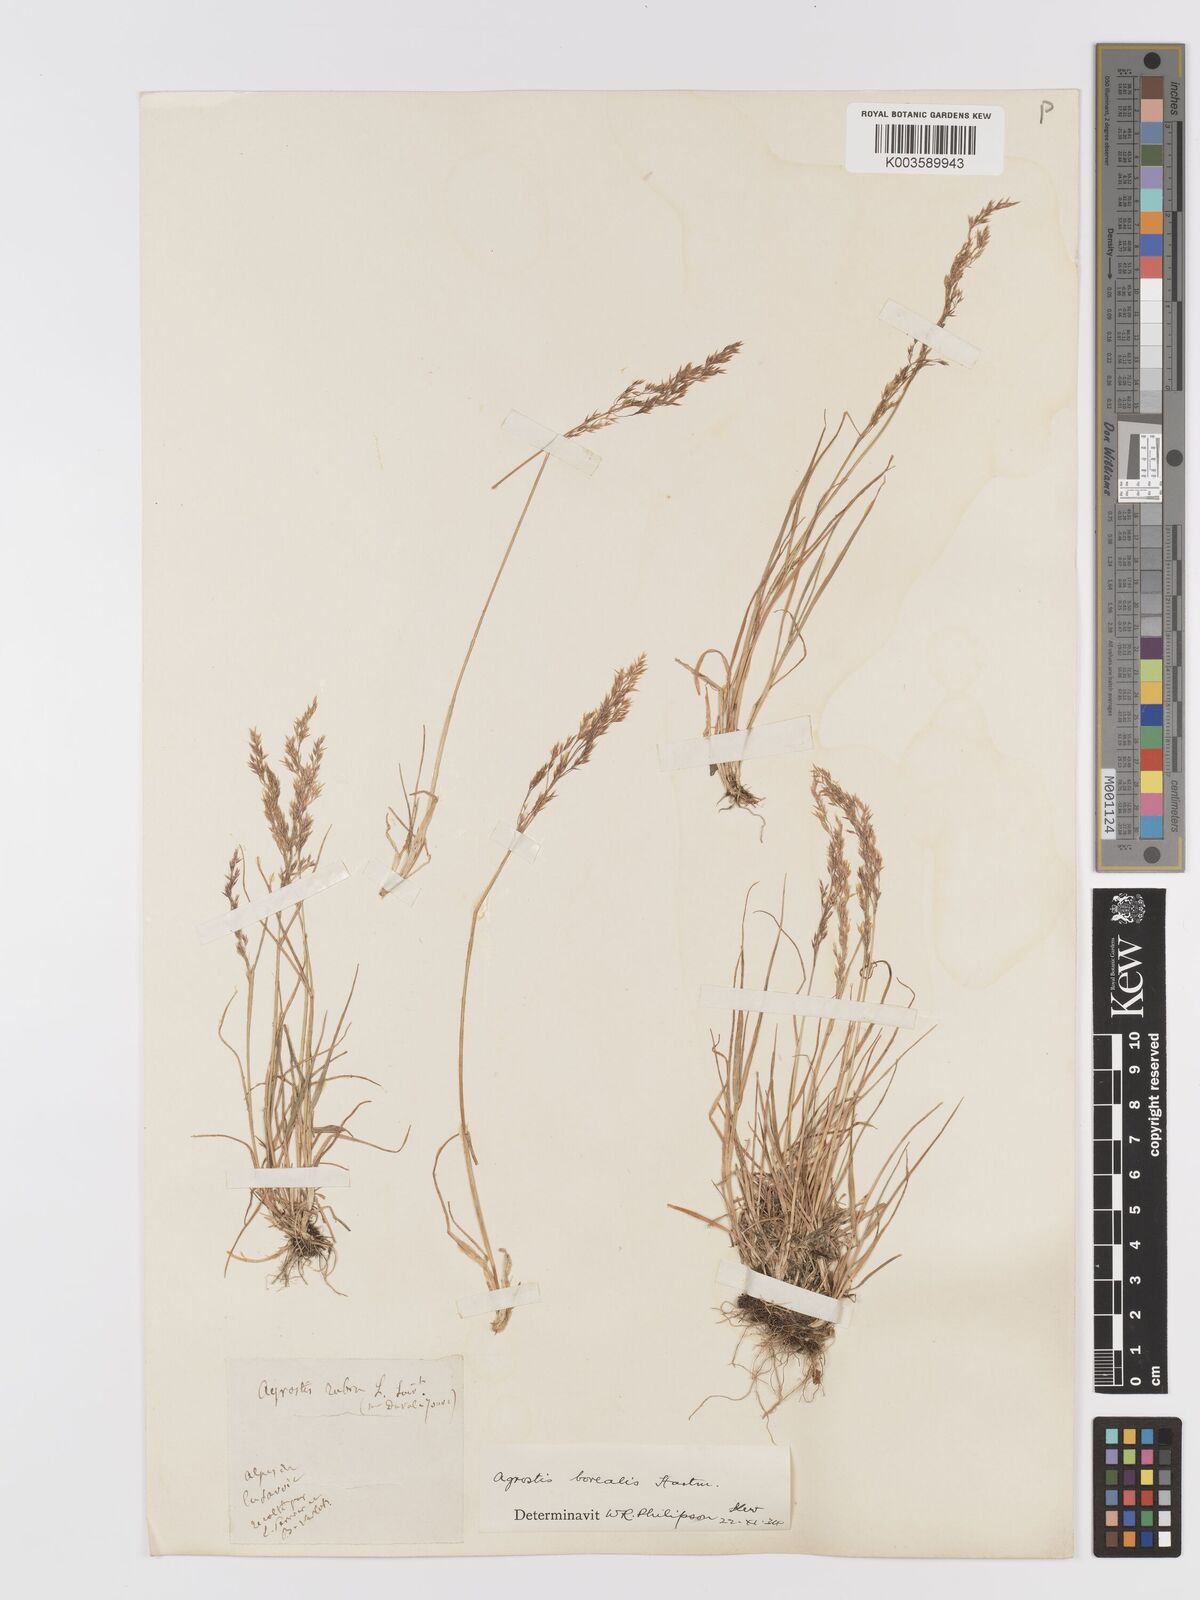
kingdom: Plantae
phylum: Tracheophyta
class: Liliopsida
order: Poales
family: Poaceae
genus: Agrostis
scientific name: Agrostis mertensii
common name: Northern bent
